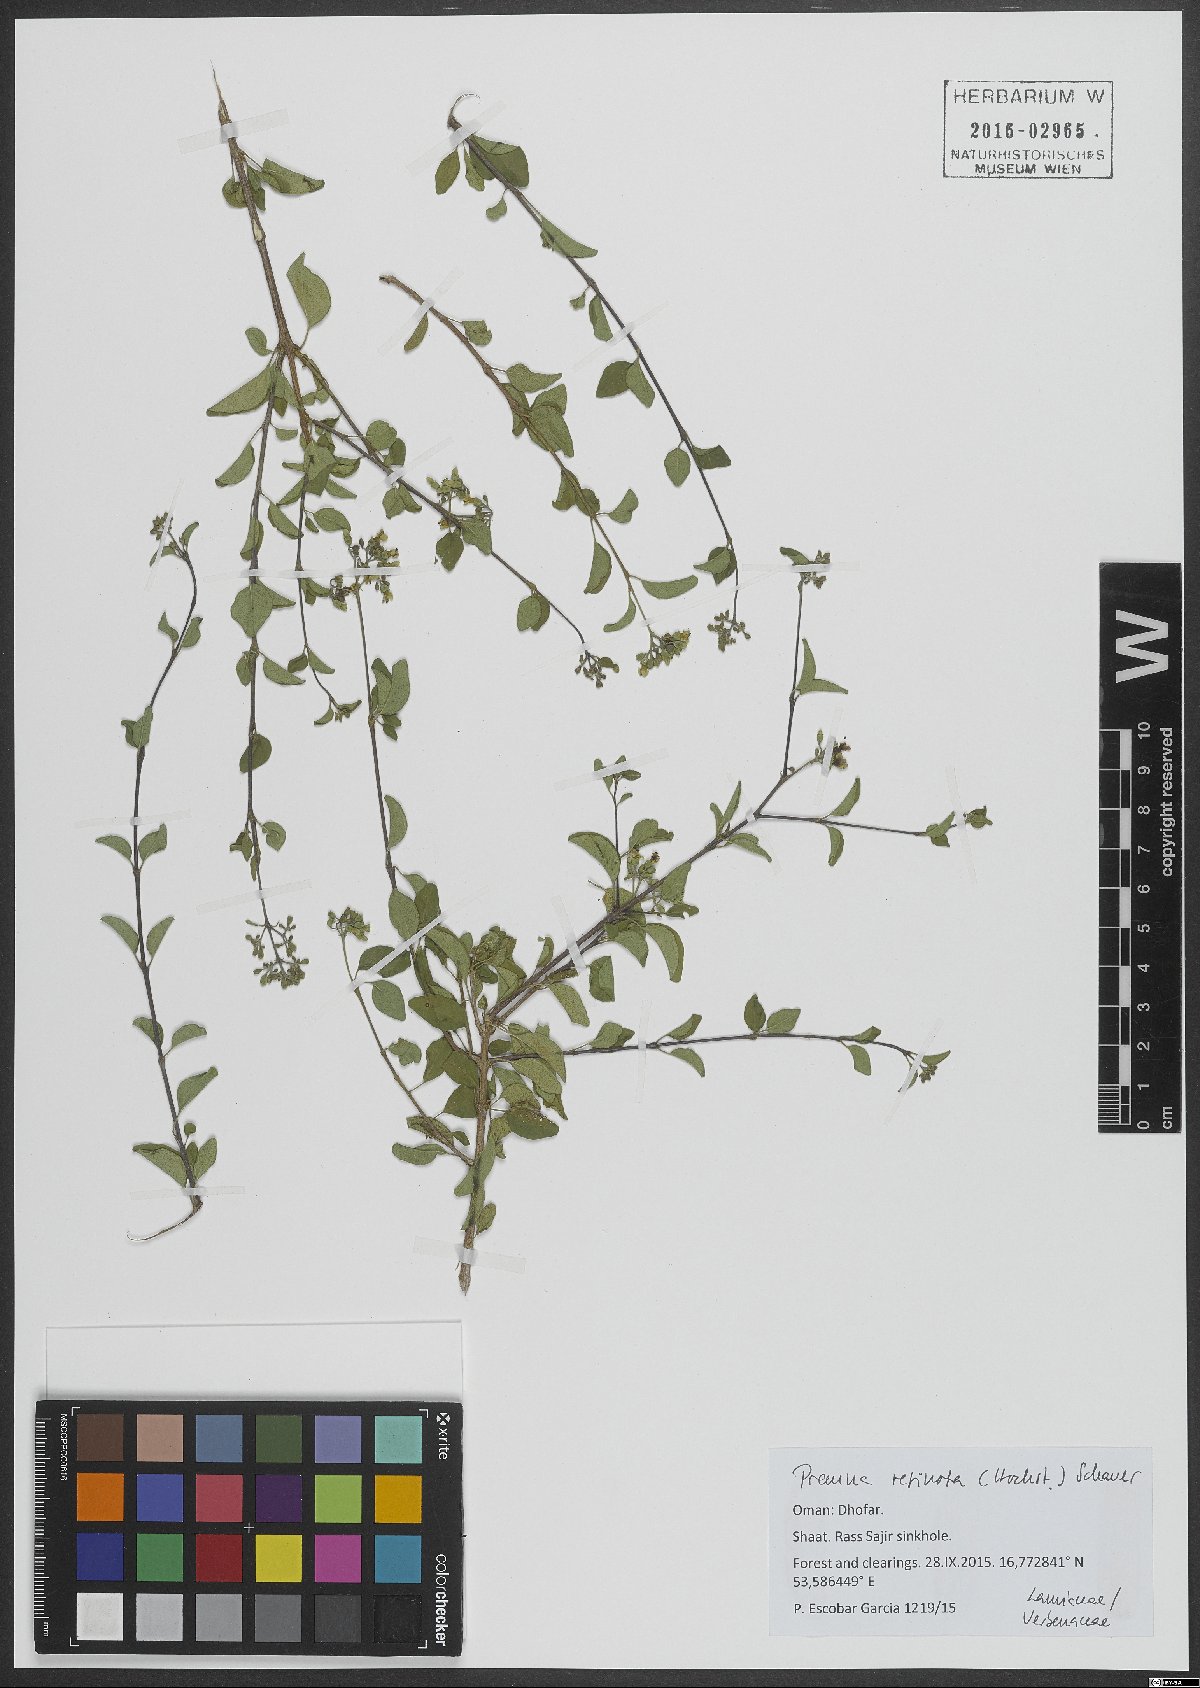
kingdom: Plantae
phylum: Tracheophyta
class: Magnoliopsida
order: Lamiales
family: Lamiaceae
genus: Premna
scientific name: Premna resinosa
